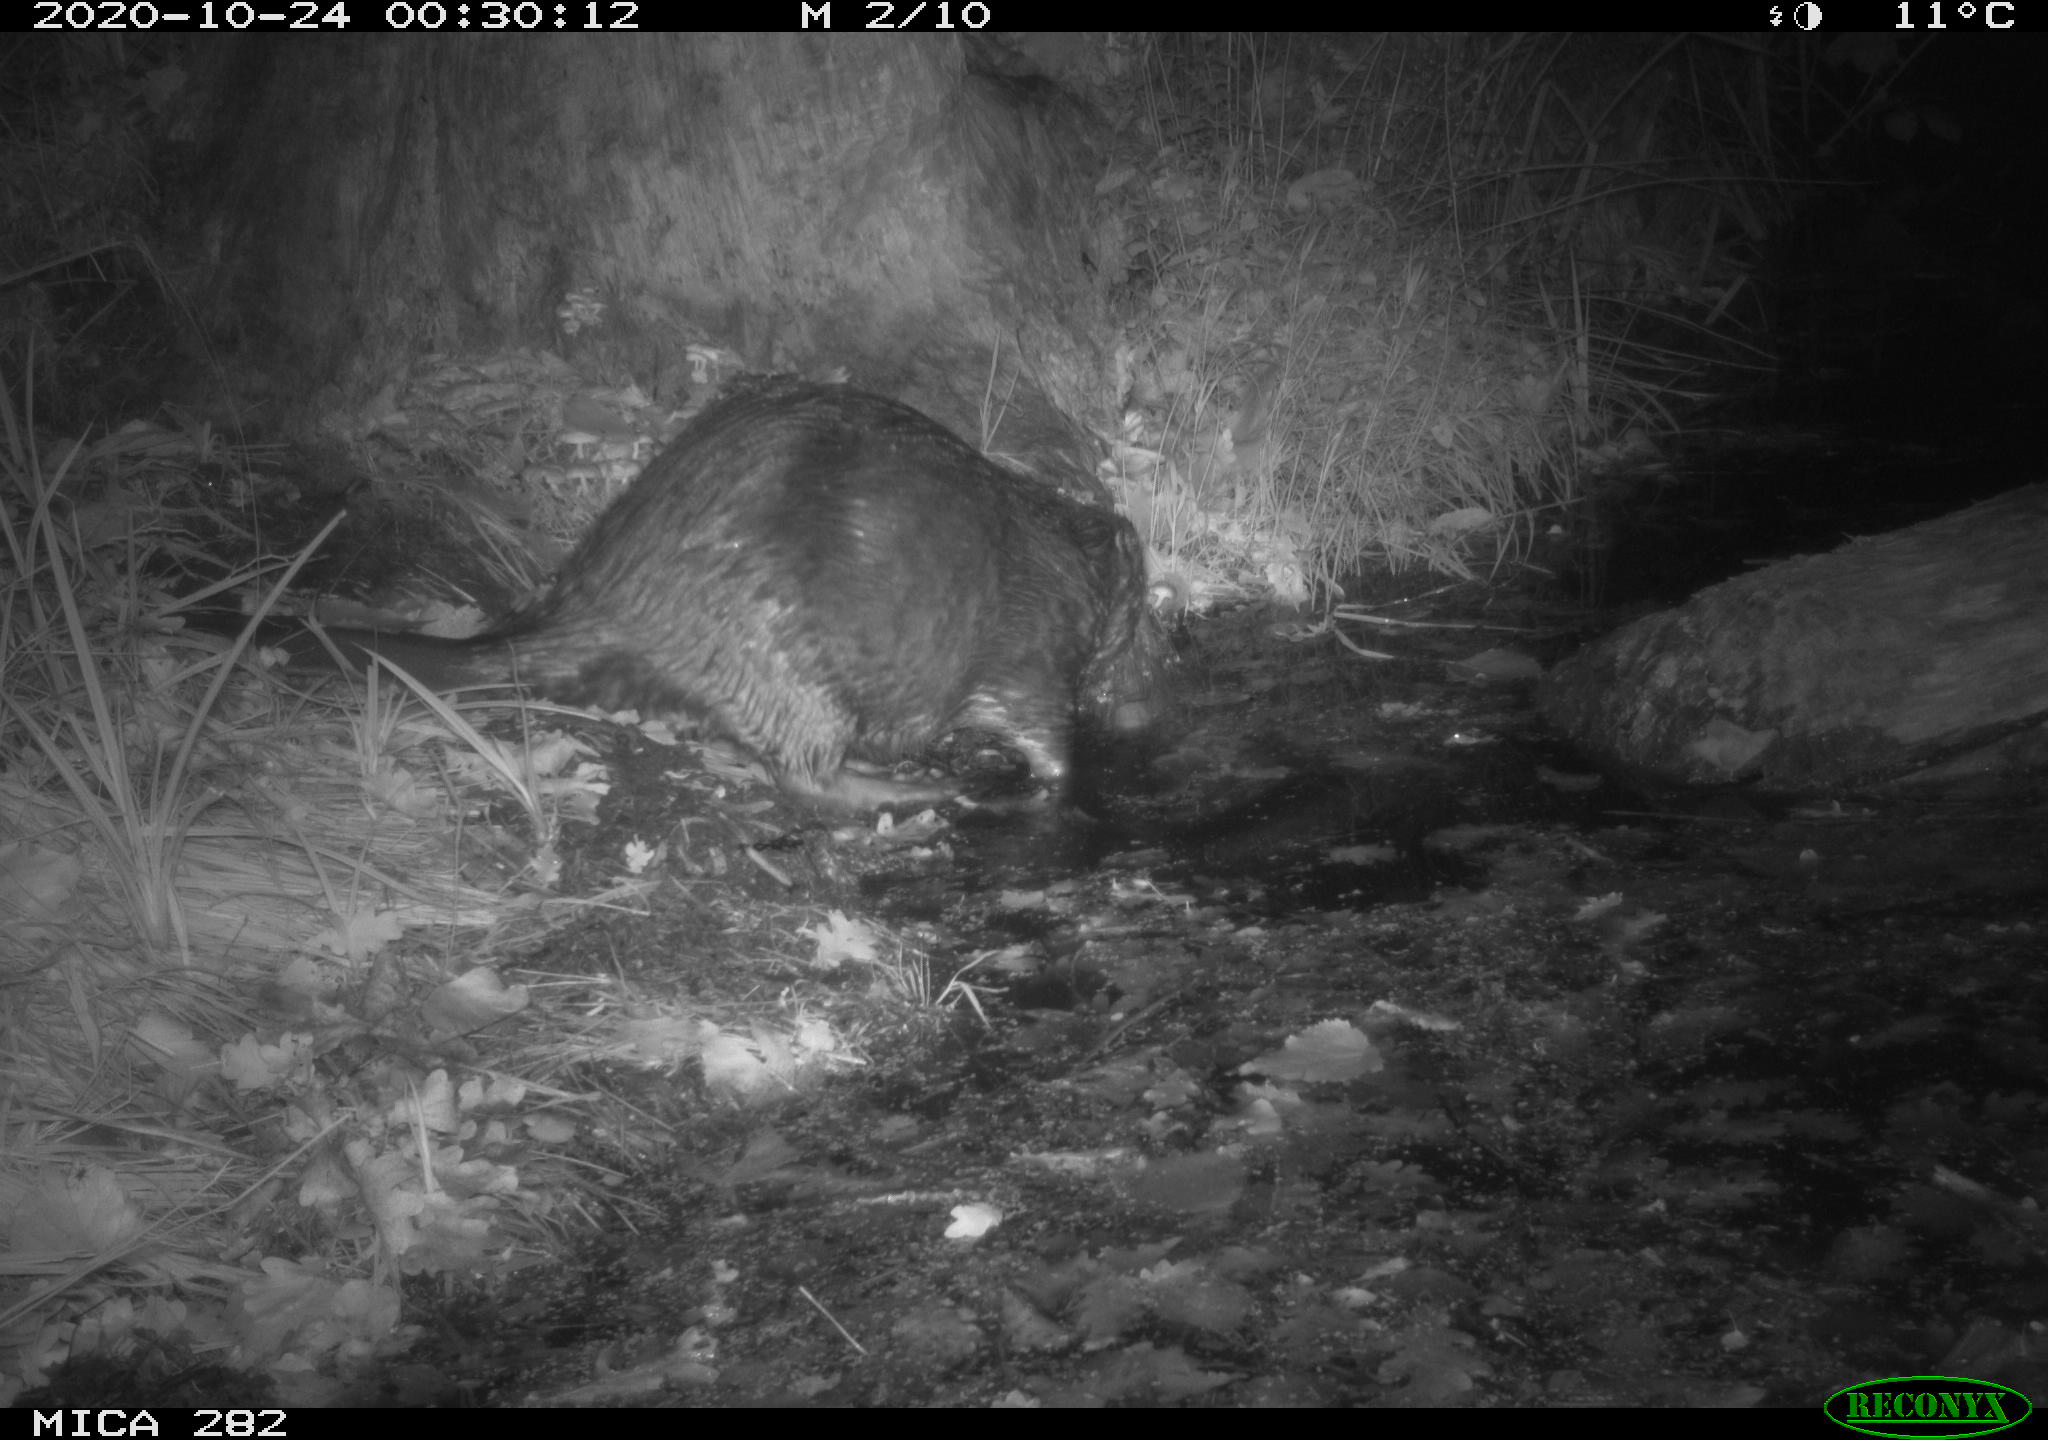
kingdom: Animalia
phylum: Chordata
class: Mammalia
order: Rodentia
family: Castoridae
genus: Castor
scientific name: Castor fiber
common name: Eurasian beaver
